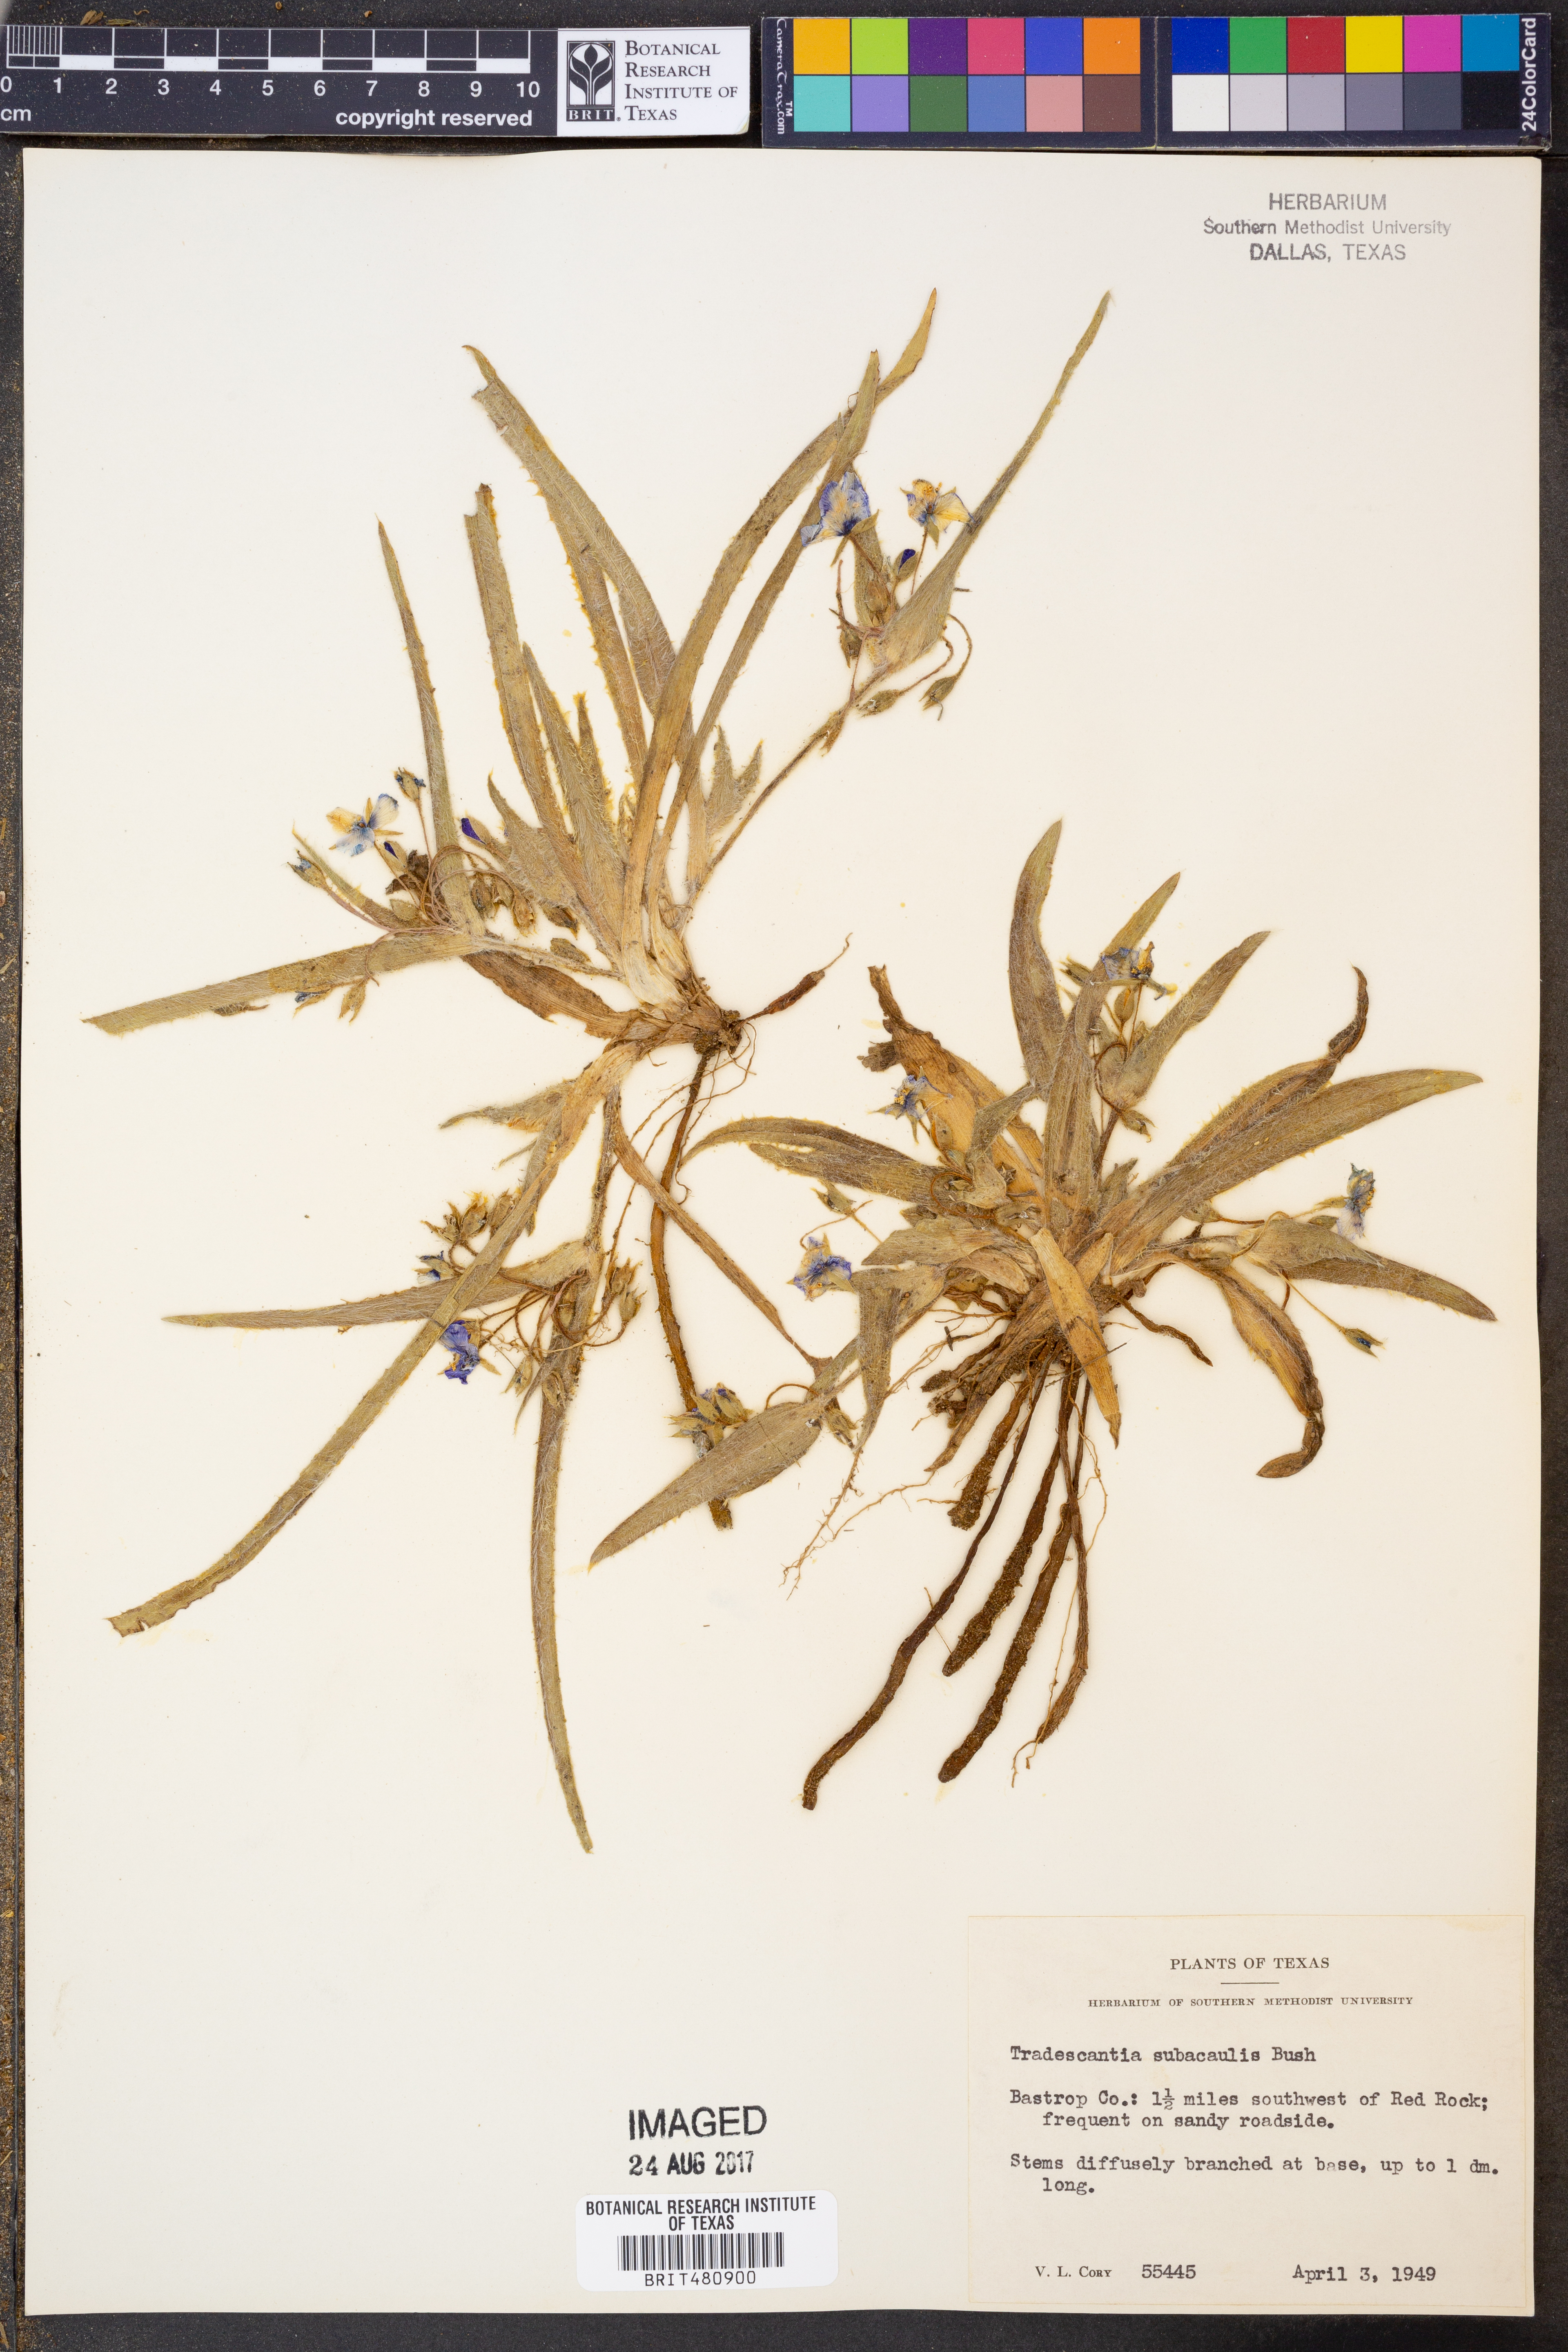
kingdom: Plantae
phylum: Tracheophyta
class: Liliopsida
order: Commelinales
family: Commelinaceae
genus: Tradescantia
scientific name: Tradescantia subacaulis
